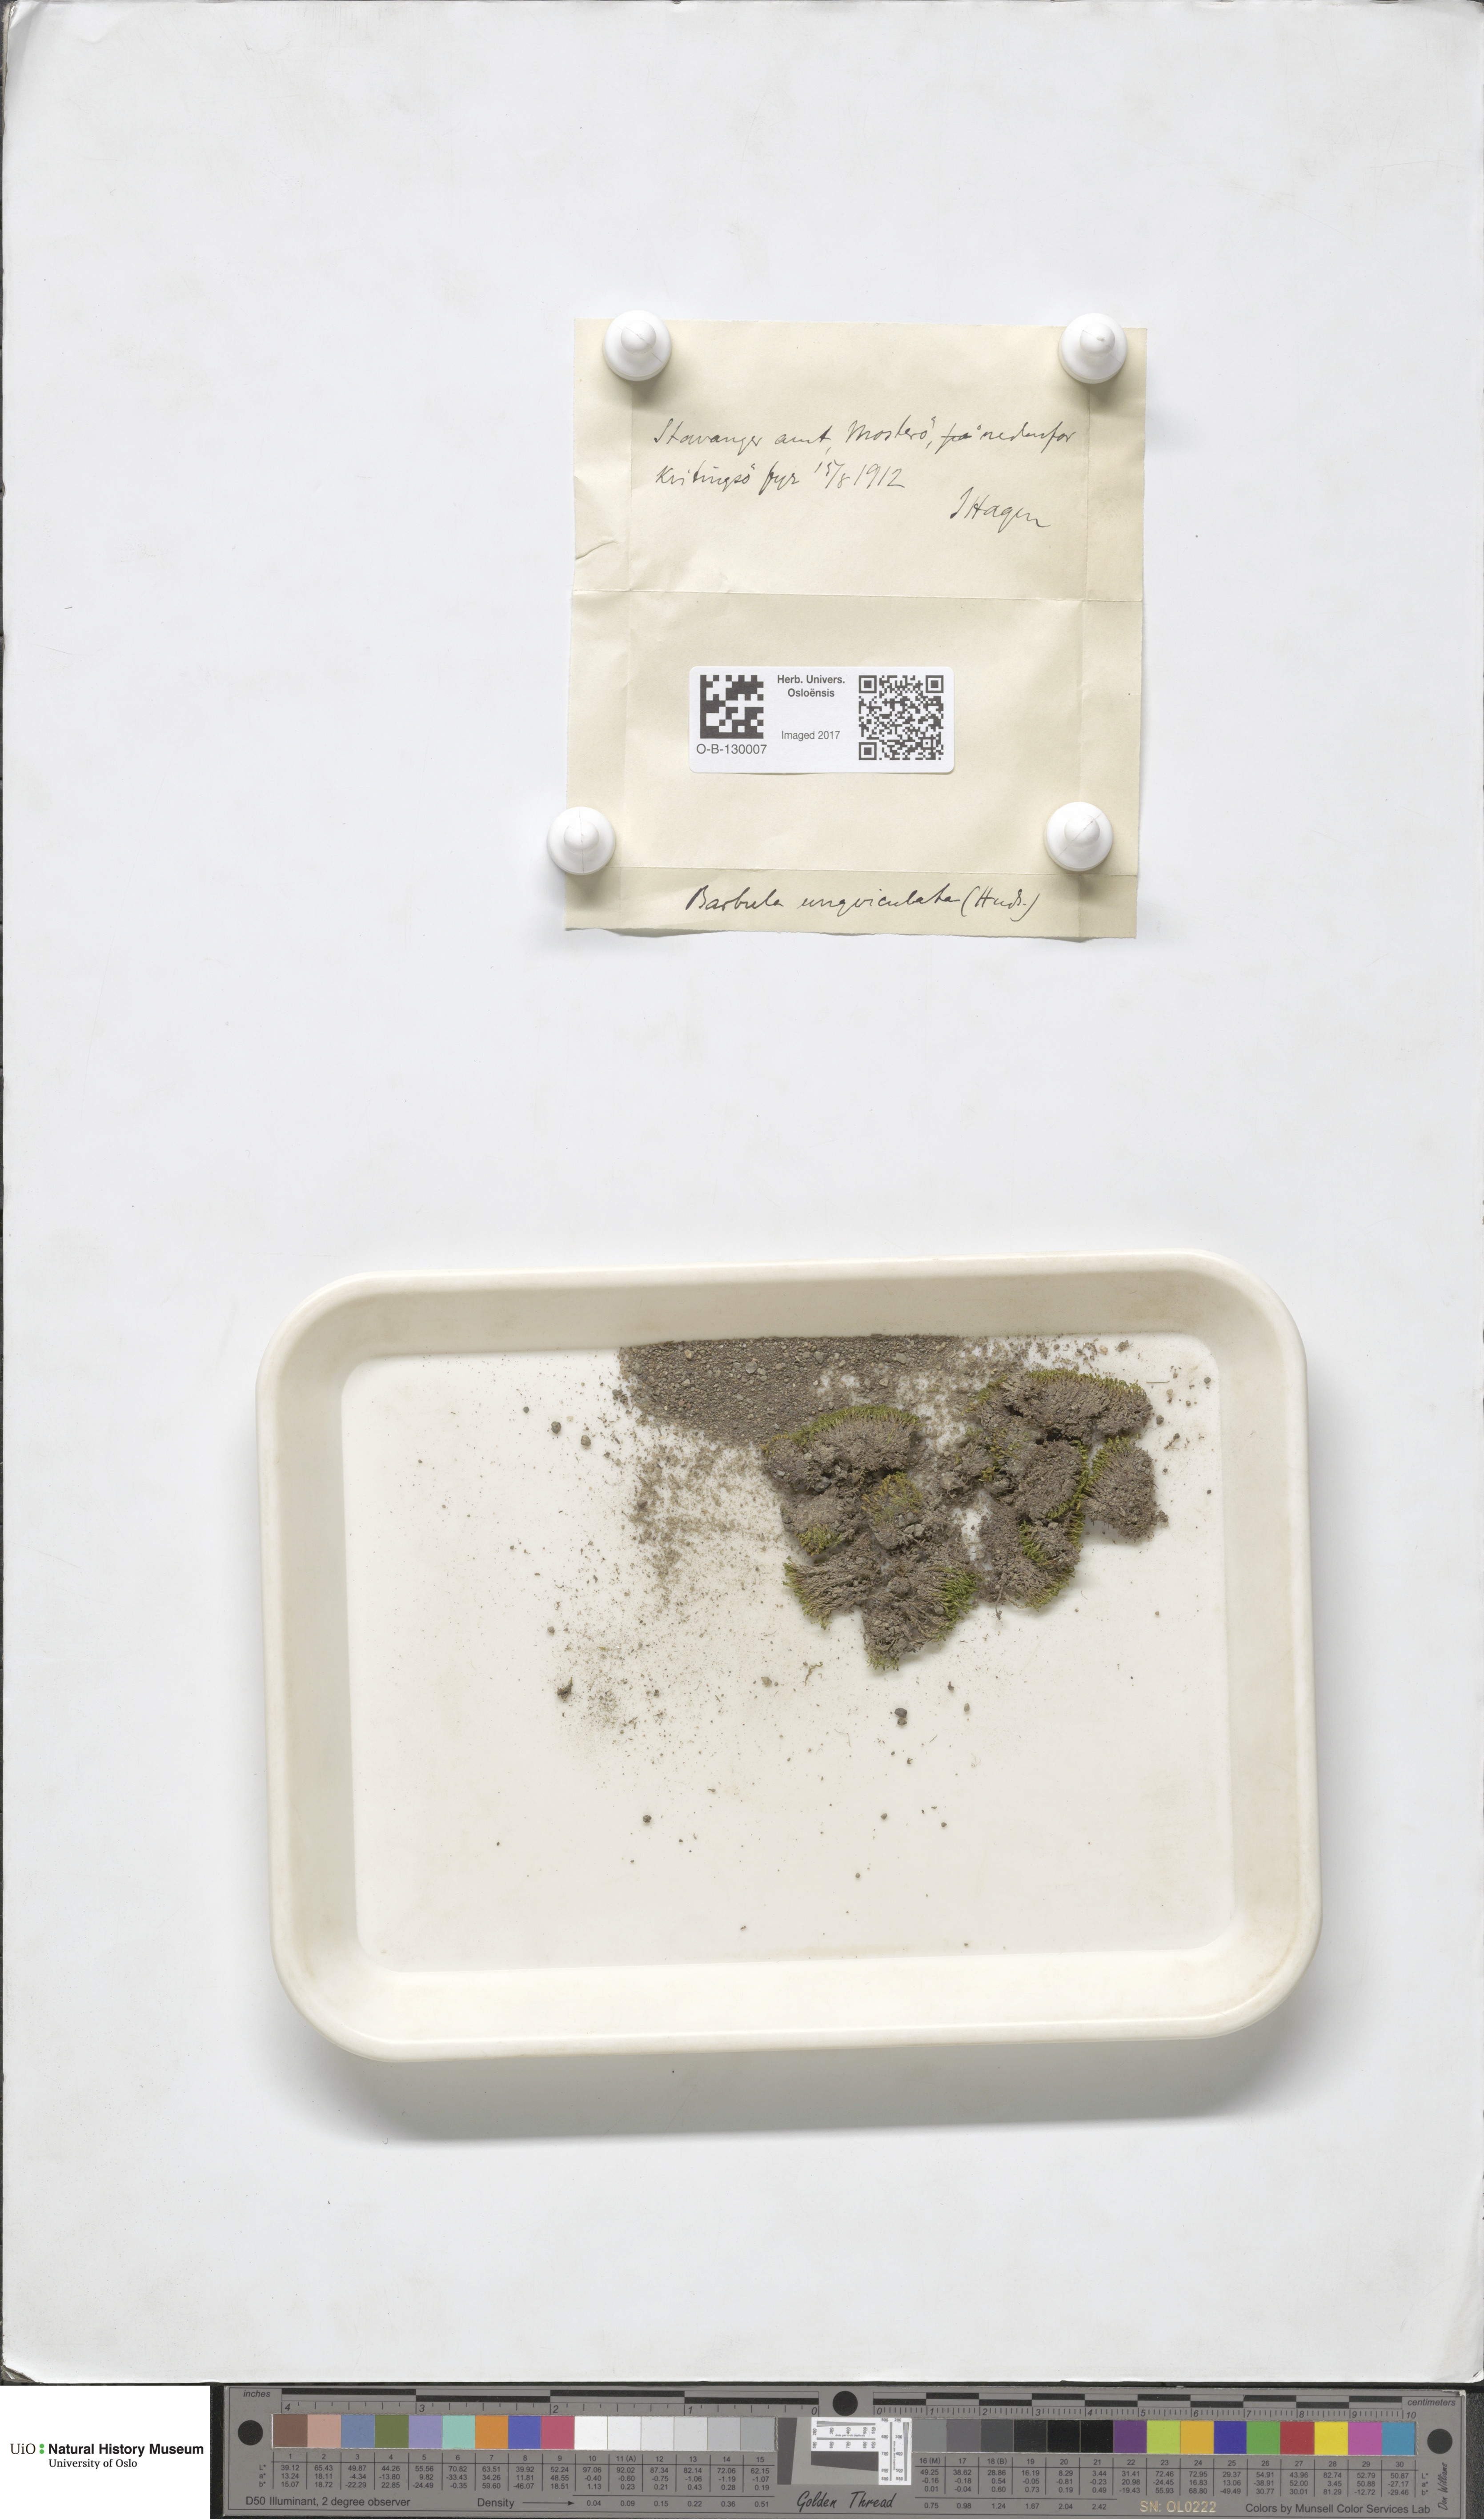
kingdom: Plantae
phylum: Bryophyta
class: Bryopsida
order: Pottiales
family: Pottiaceae
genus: Barbula
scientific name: Barbula unguiculata
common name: Prickly beard moss
